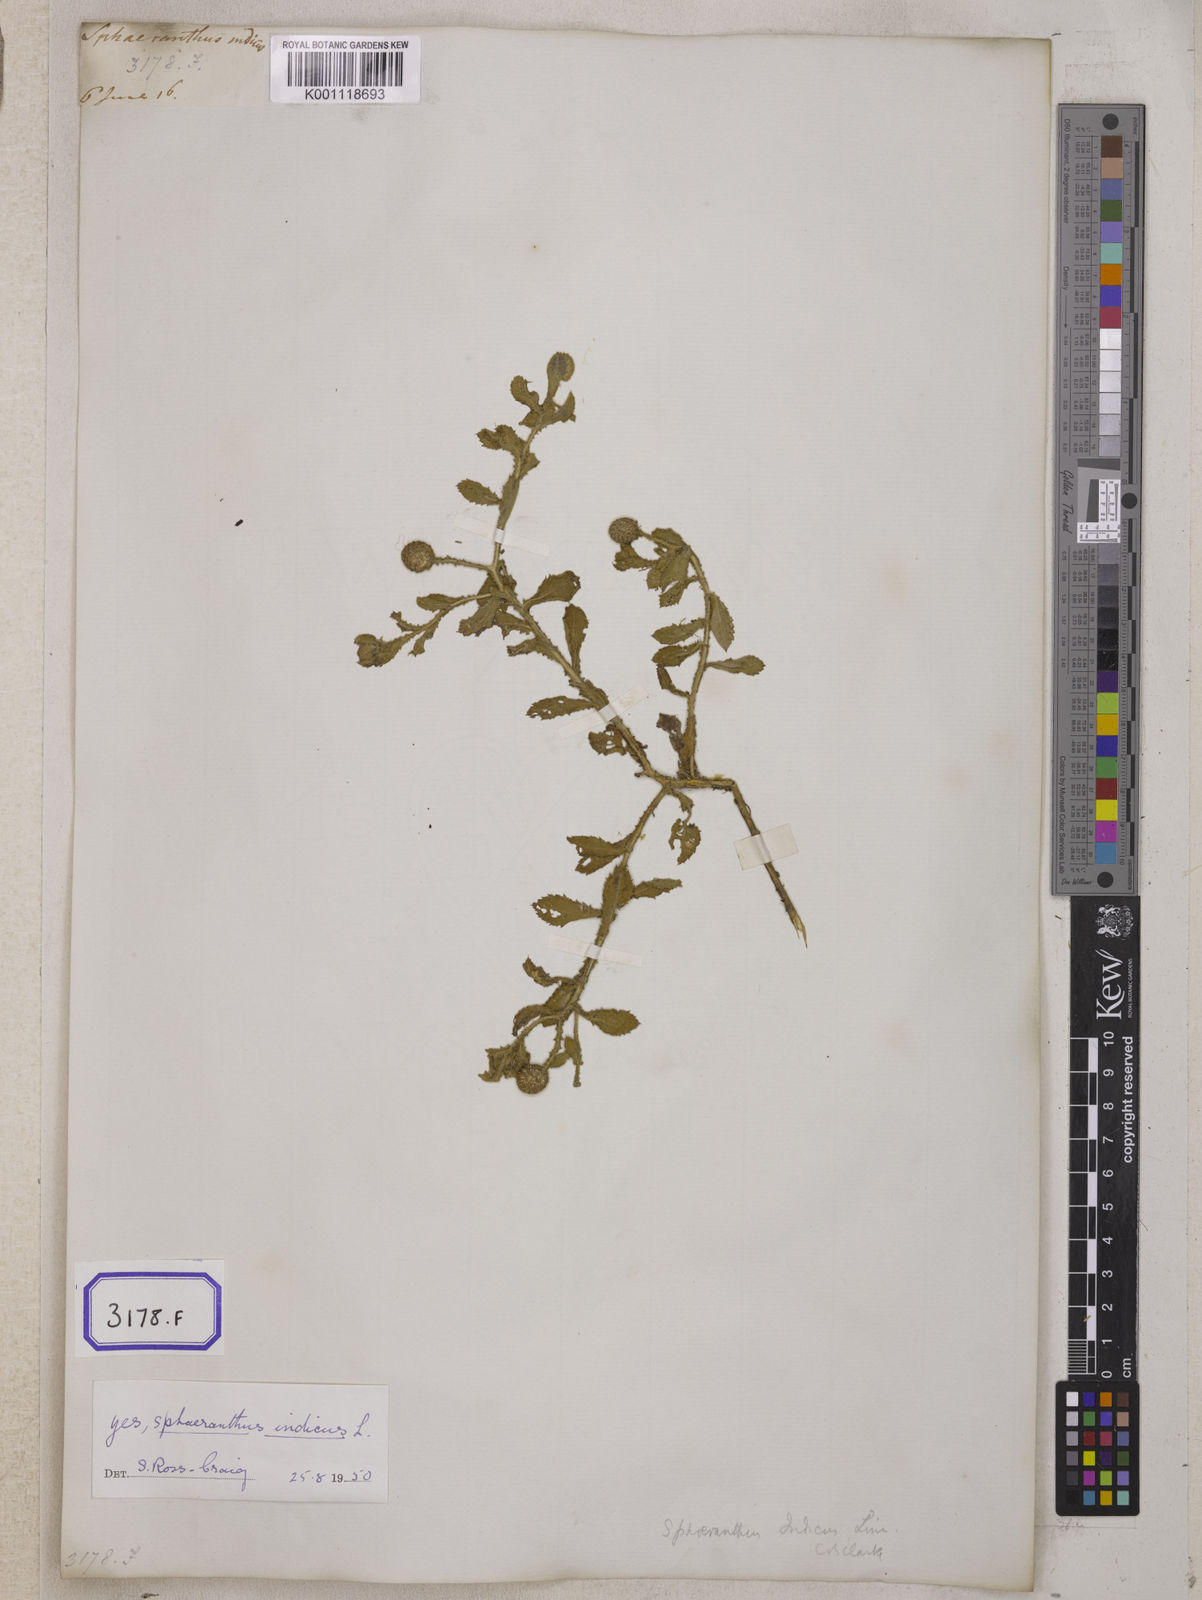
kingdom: Plantae
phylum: Tracheophyta
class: Magnoliopsida
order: Asterales
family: Asteraceae
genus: Sphaeranthus
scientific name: Sphaeranthus indicus
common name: East indian globe thistle
